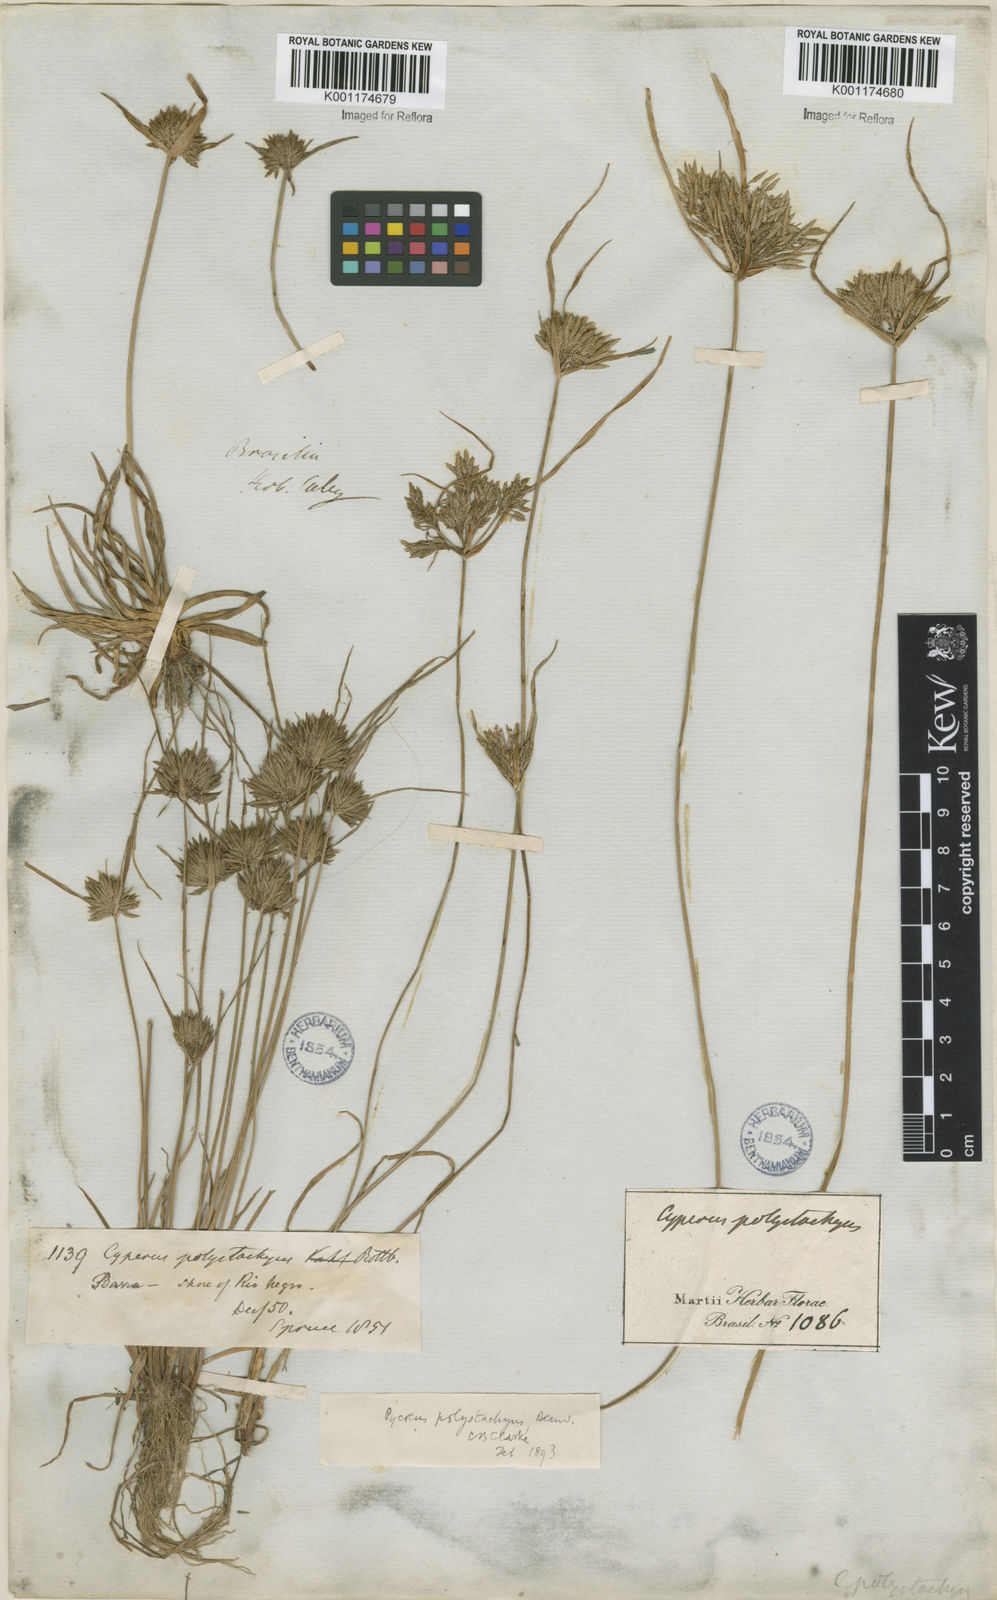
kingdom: Plantae
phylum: Tracheophyta
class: Liliopsida
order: Poales
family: Cyperaceae
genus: Cyperus
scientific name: Cyperus polystachyos
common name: Bunchy flat sedge
